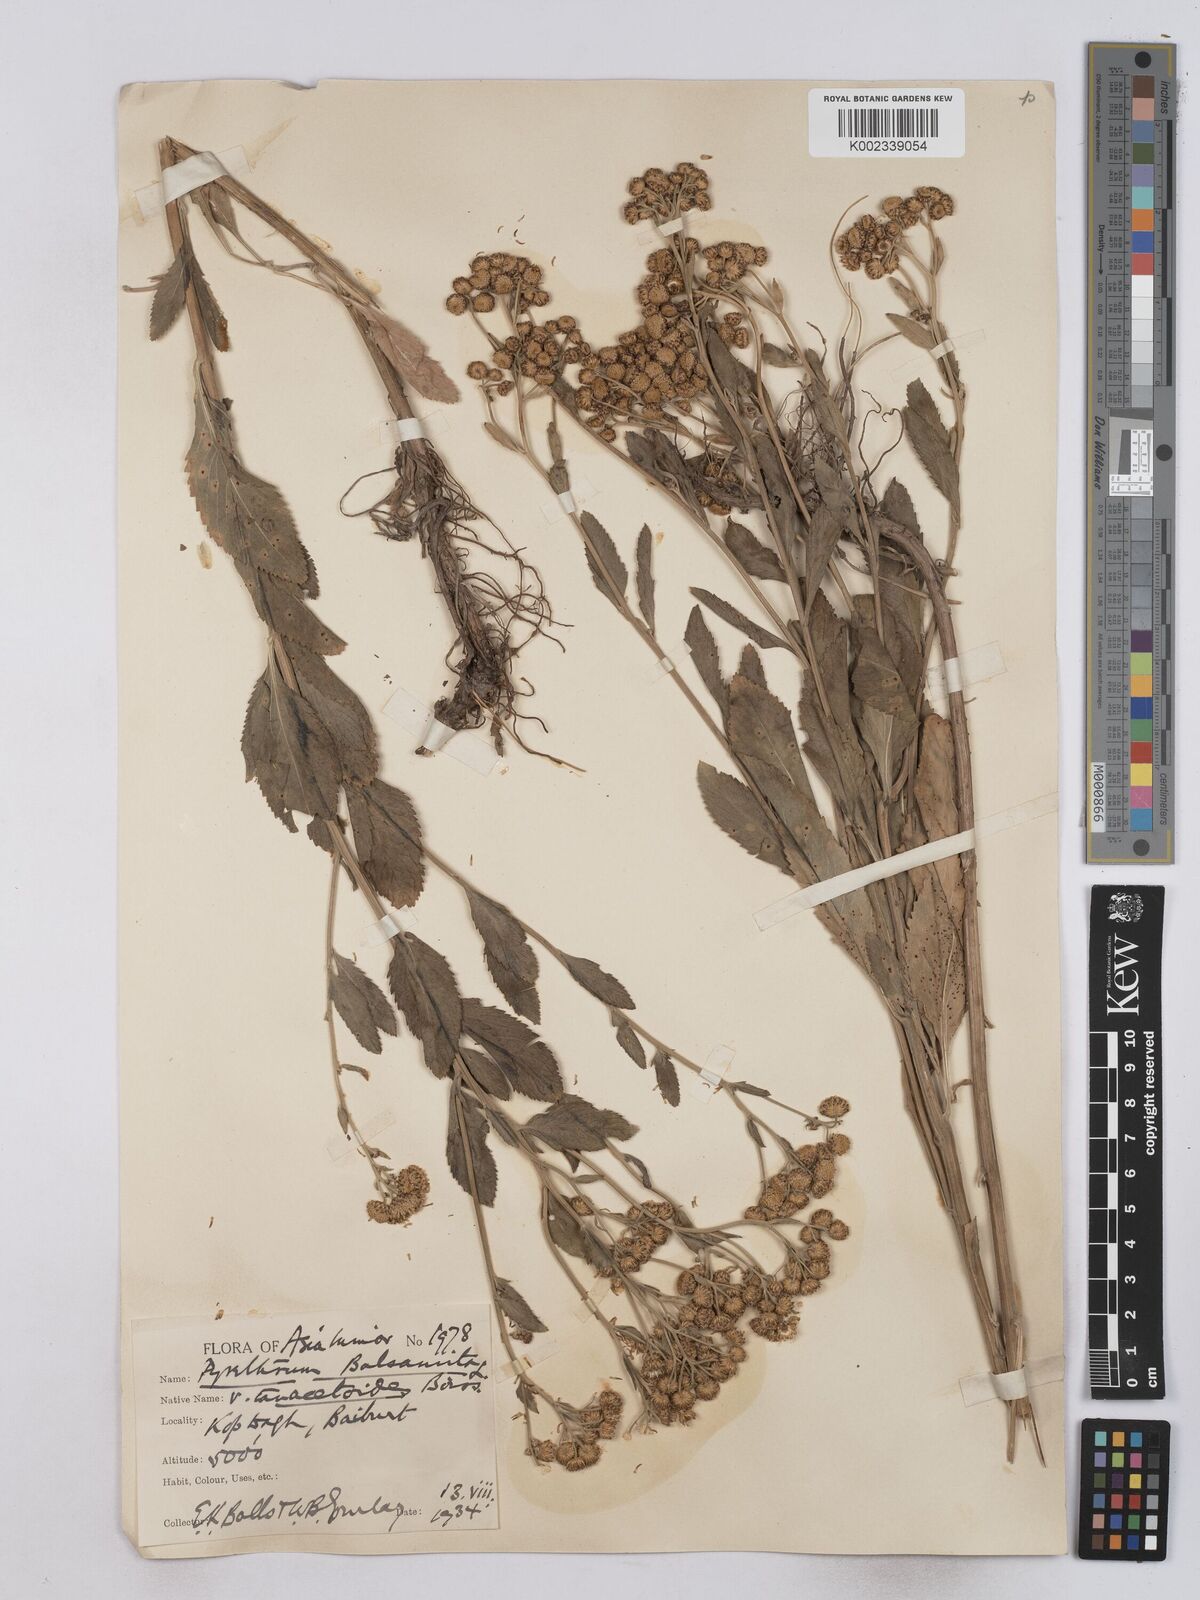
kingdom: Plantae
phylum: Tracheophyta
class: Magnoliopsida
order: Asterales
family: Asteraceae
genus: Tanacetum
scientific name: Tanacetum balsamita
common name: Costmary
